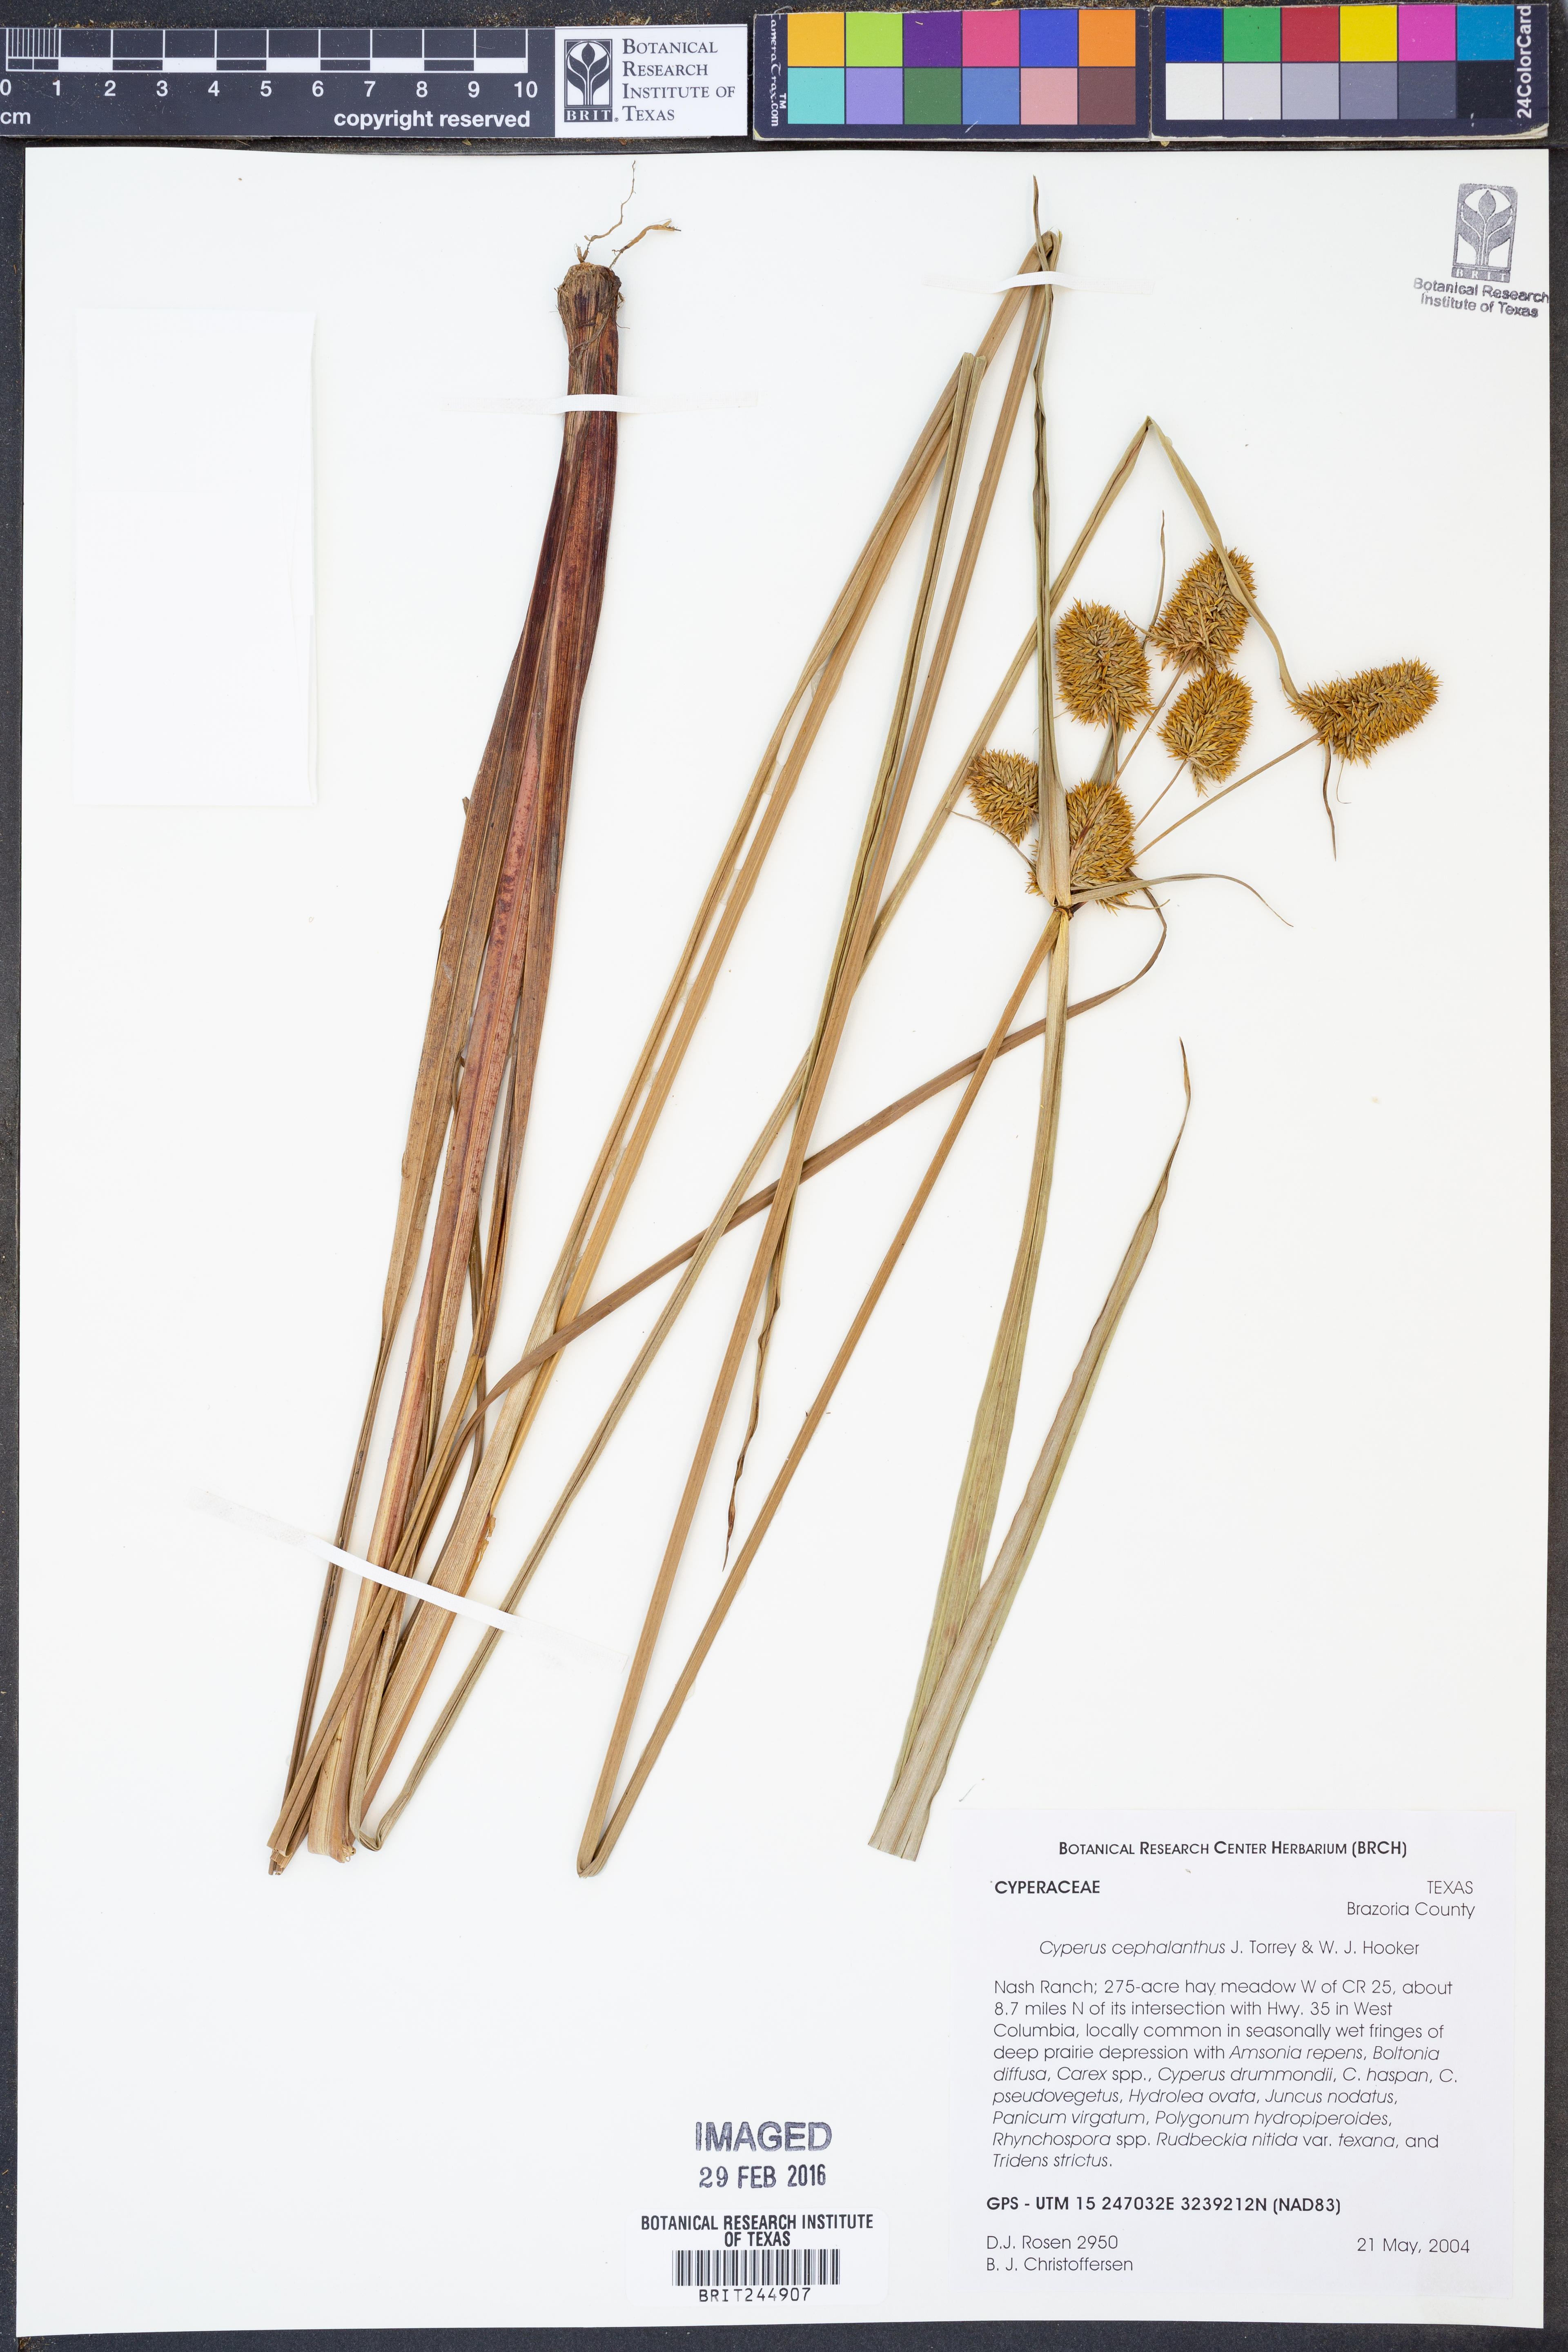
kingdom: Plantae
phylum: Tracheophyta
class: Liliopsida
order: Poales
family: Cyperaceae
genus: Cyperus
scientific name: Cyperus cephalanthus
